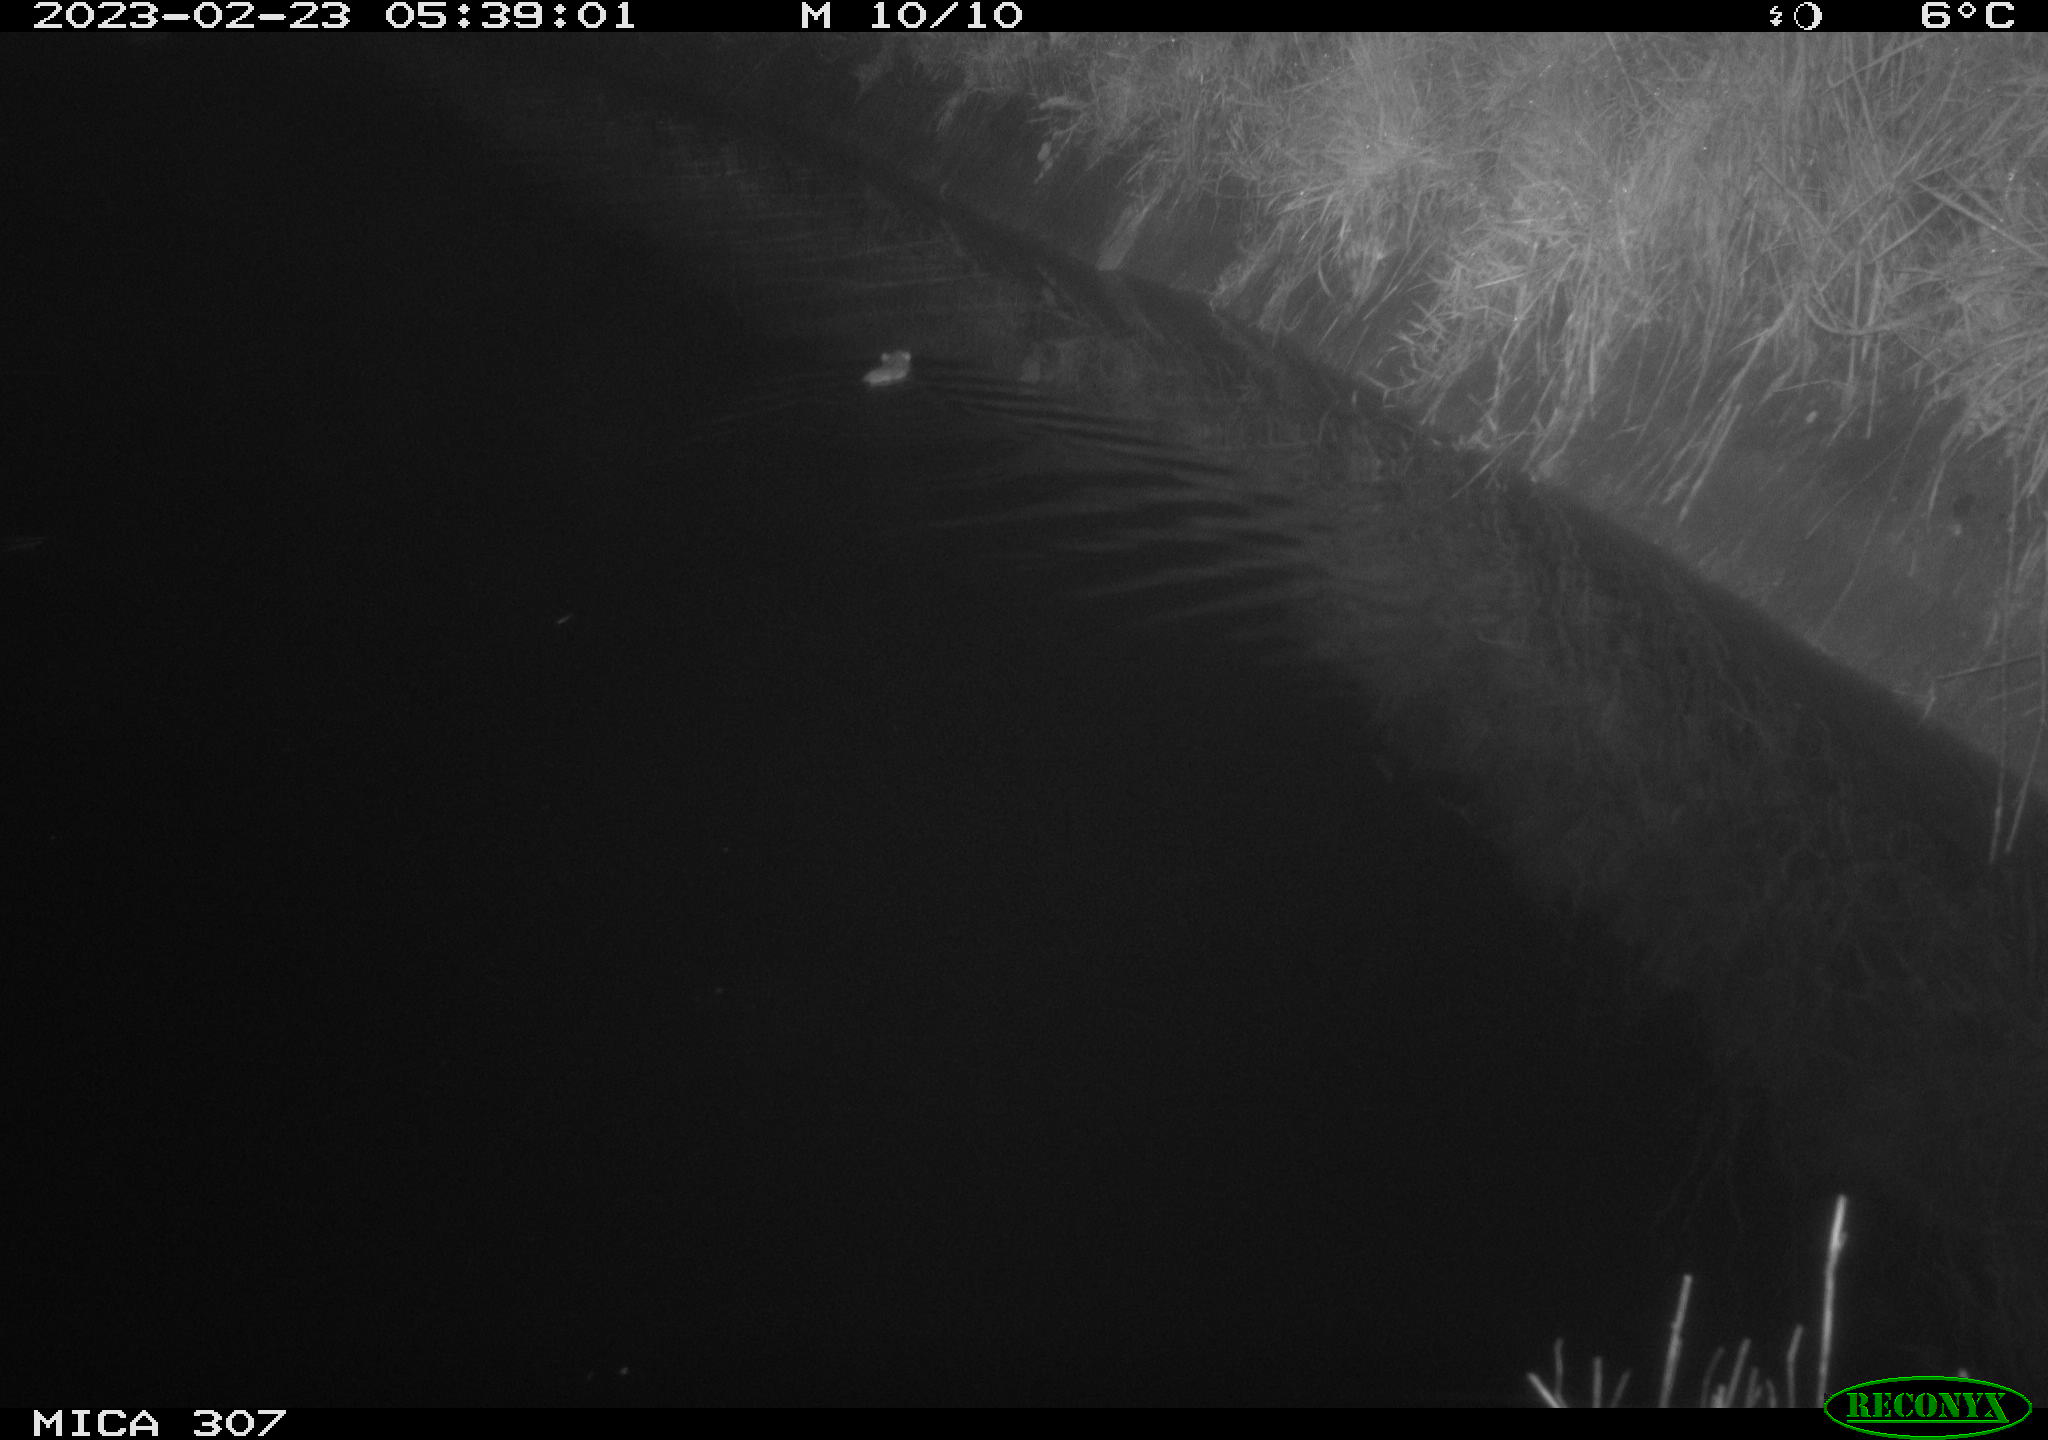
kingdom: Animalia
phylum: Chordata
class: Mammalia
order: Rodentia
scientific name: Rodentia
